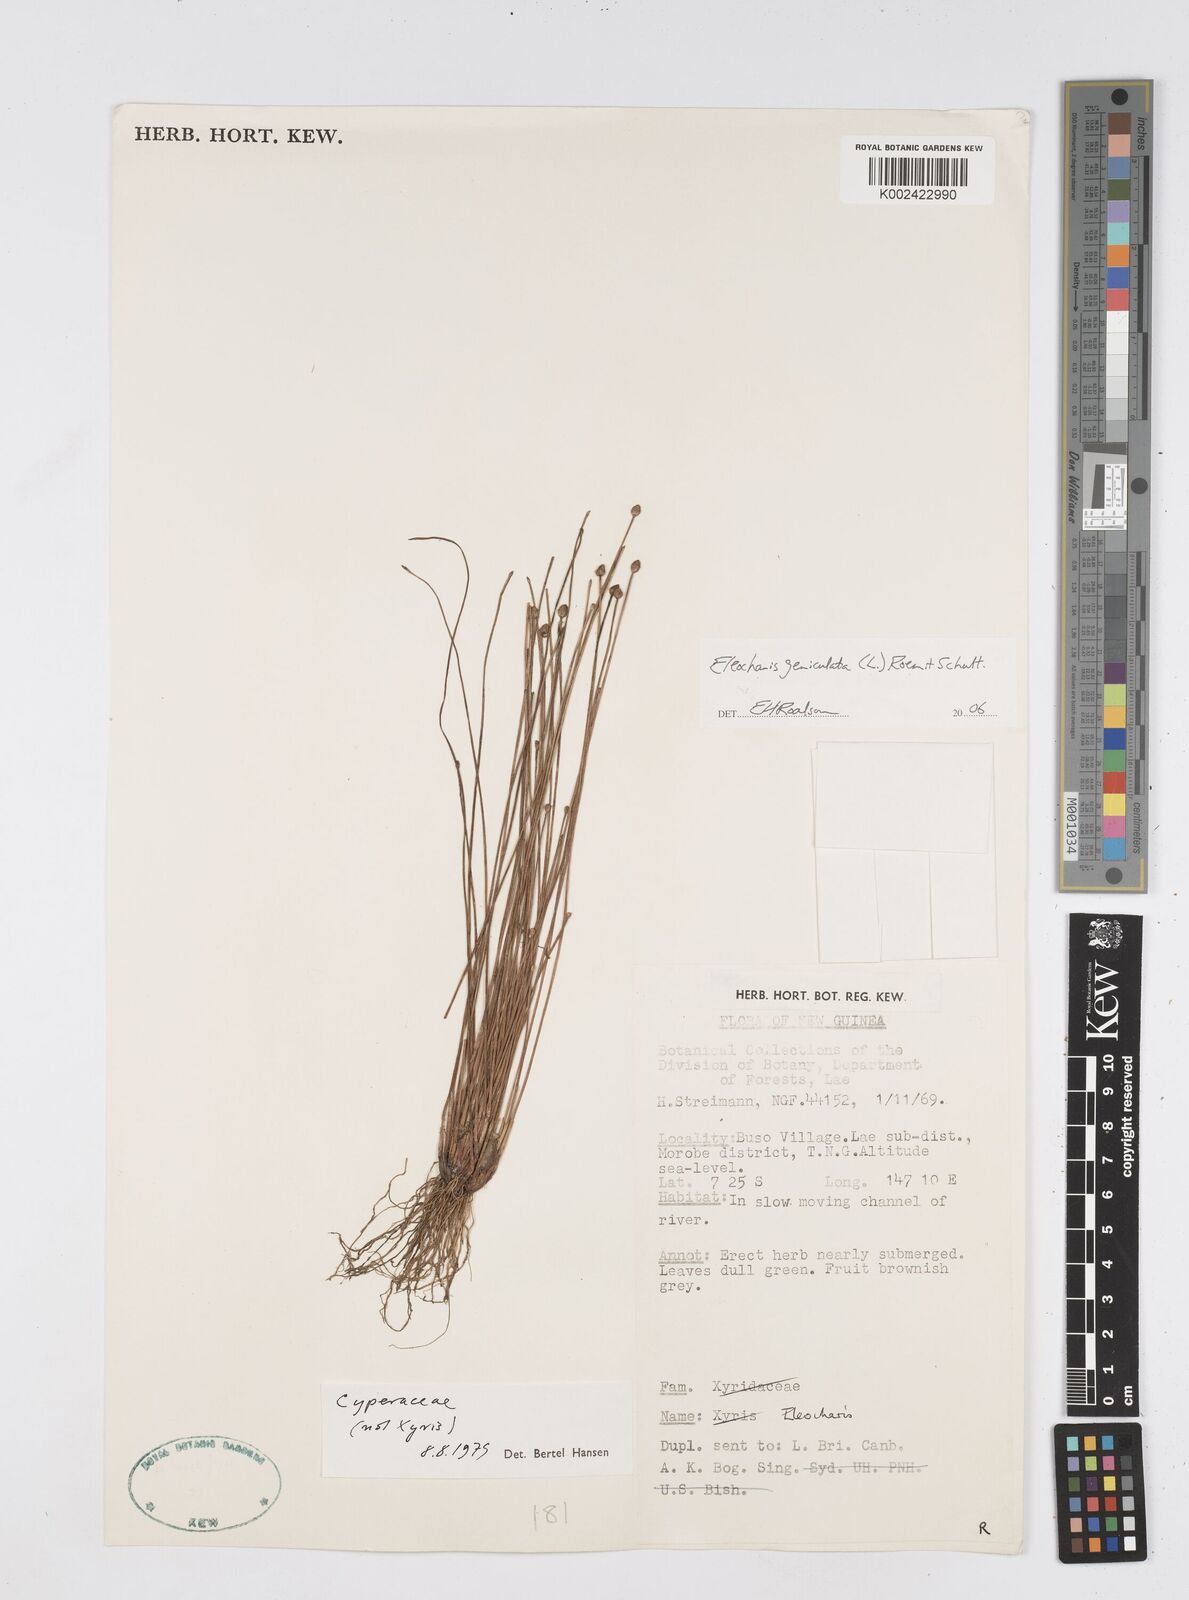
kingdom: Plantae
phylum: Tracheophyta
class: Liliopsida
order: Poales
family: Cyperaceae
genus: Eleocharis
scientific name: Eleocharis geniculata
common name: Canada spikesedge
